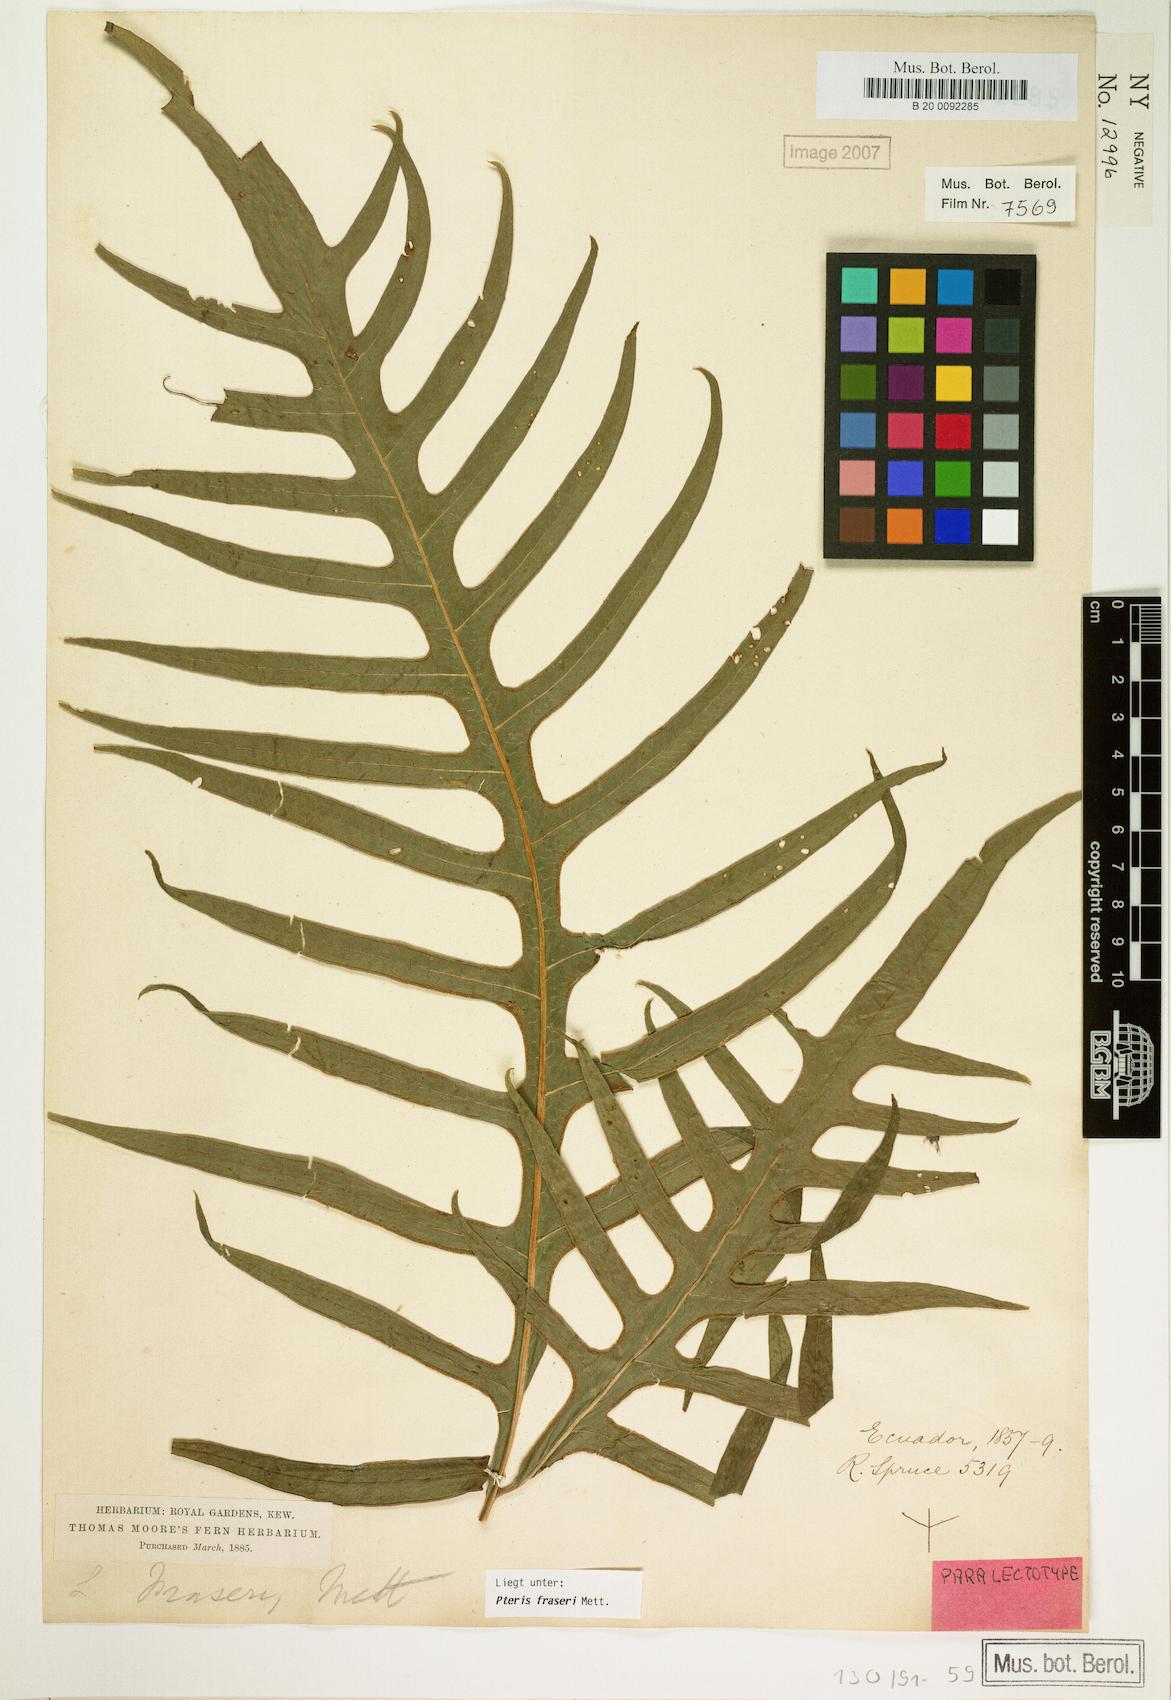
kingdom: Plantae
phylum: Tracheophyta
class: Polypodiopsida
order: Polypodiales
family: Pteridaceae
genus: Pteris
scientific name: Pteris fraseri
